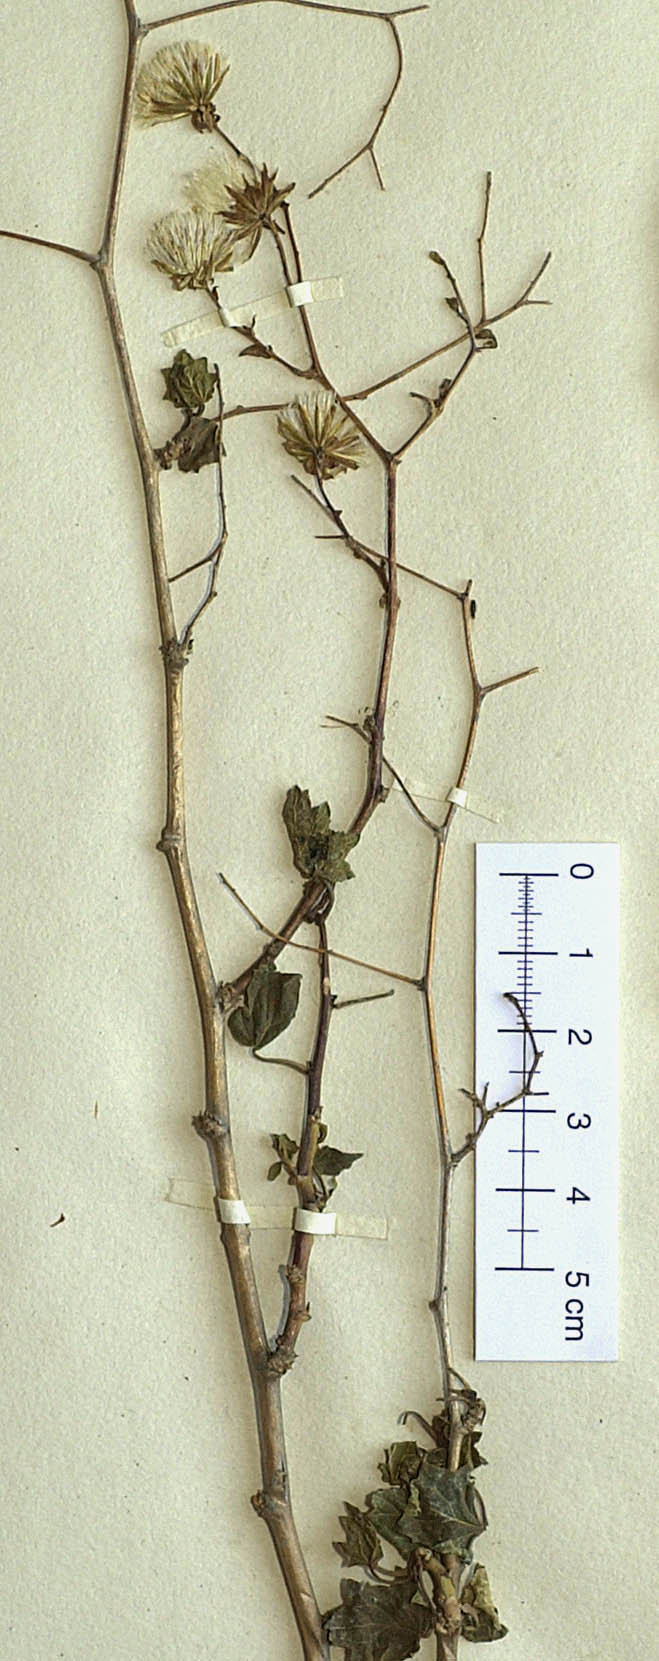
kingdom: Plantae
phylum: Tracheophyta
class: Magnoliopsida
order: Asterales
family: Asteraceae
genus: Jungia
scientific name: Jungia polita
